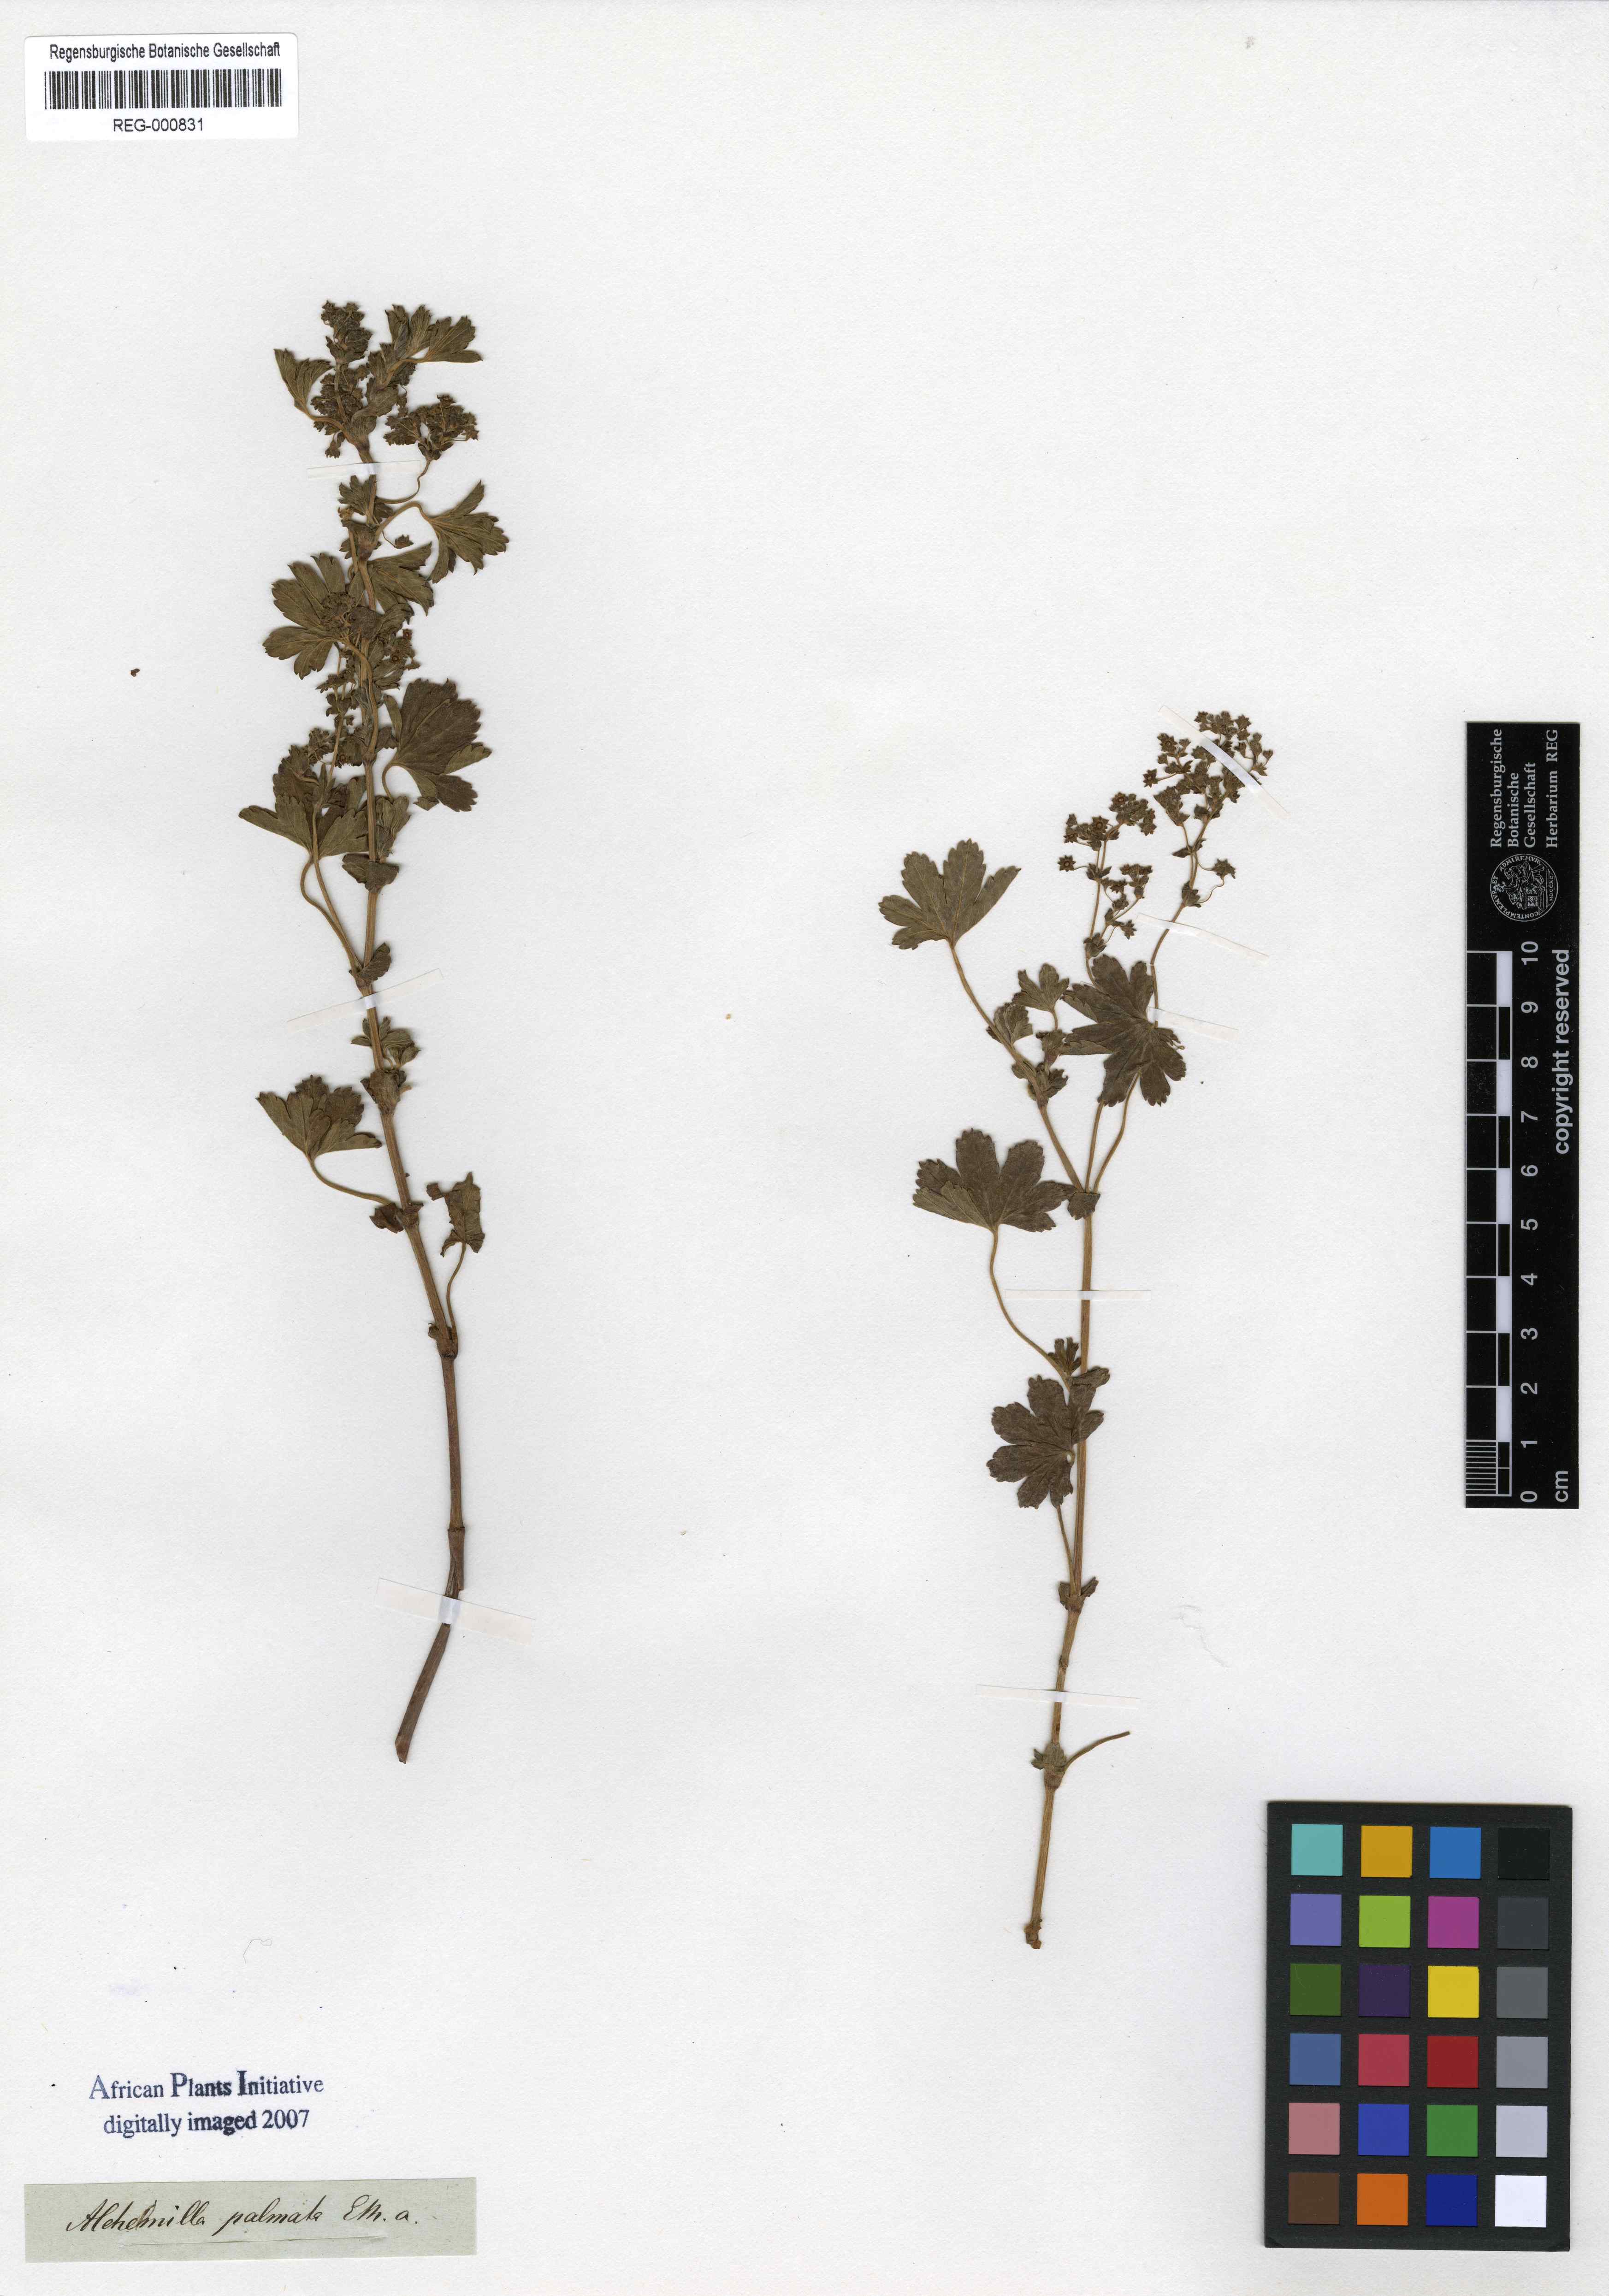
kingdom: Plantae
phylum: Tracheophyta
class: Magnoliopsida
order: Rosales
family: Rosaceae
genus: Alchemilla
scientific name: Alchemilla palmata
